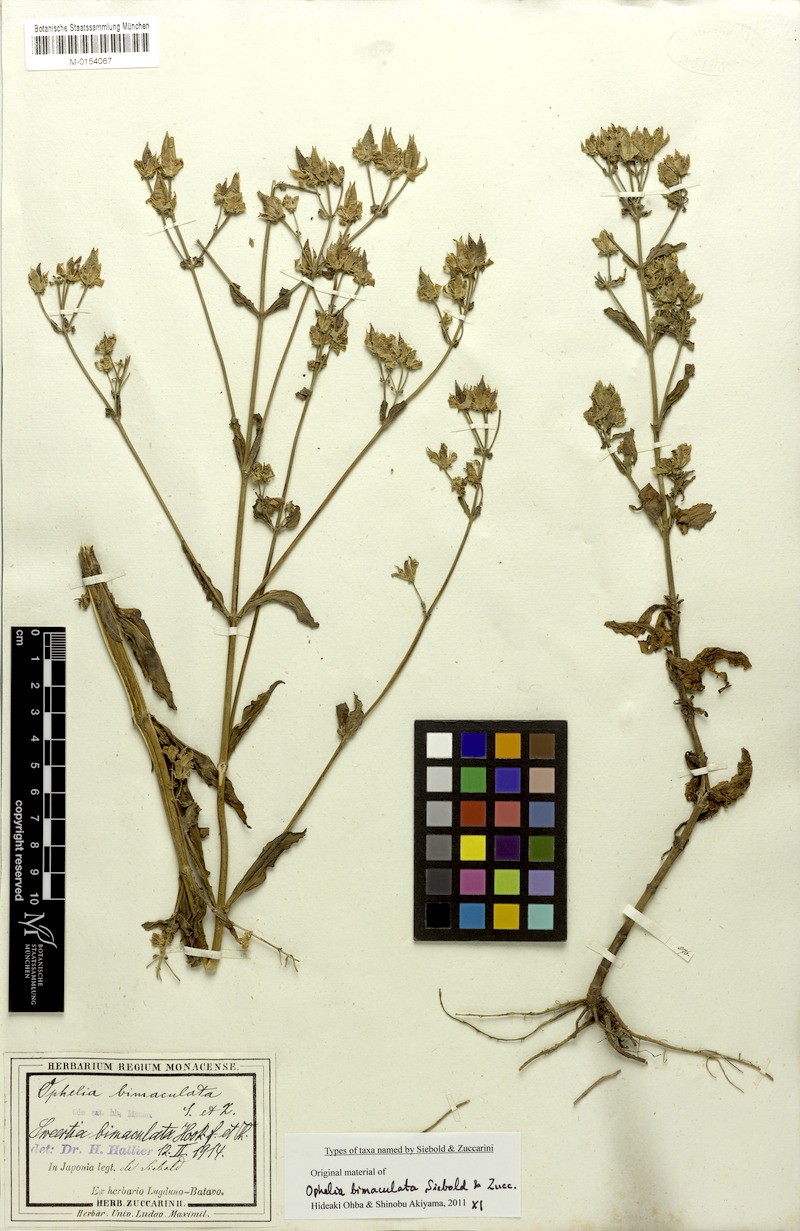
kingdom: Plantae
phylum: Tracheophyta
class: Magnoliopsida
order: Gentianales
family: Gentianaceae
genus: Swertia
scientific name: Swertia bimaculata
